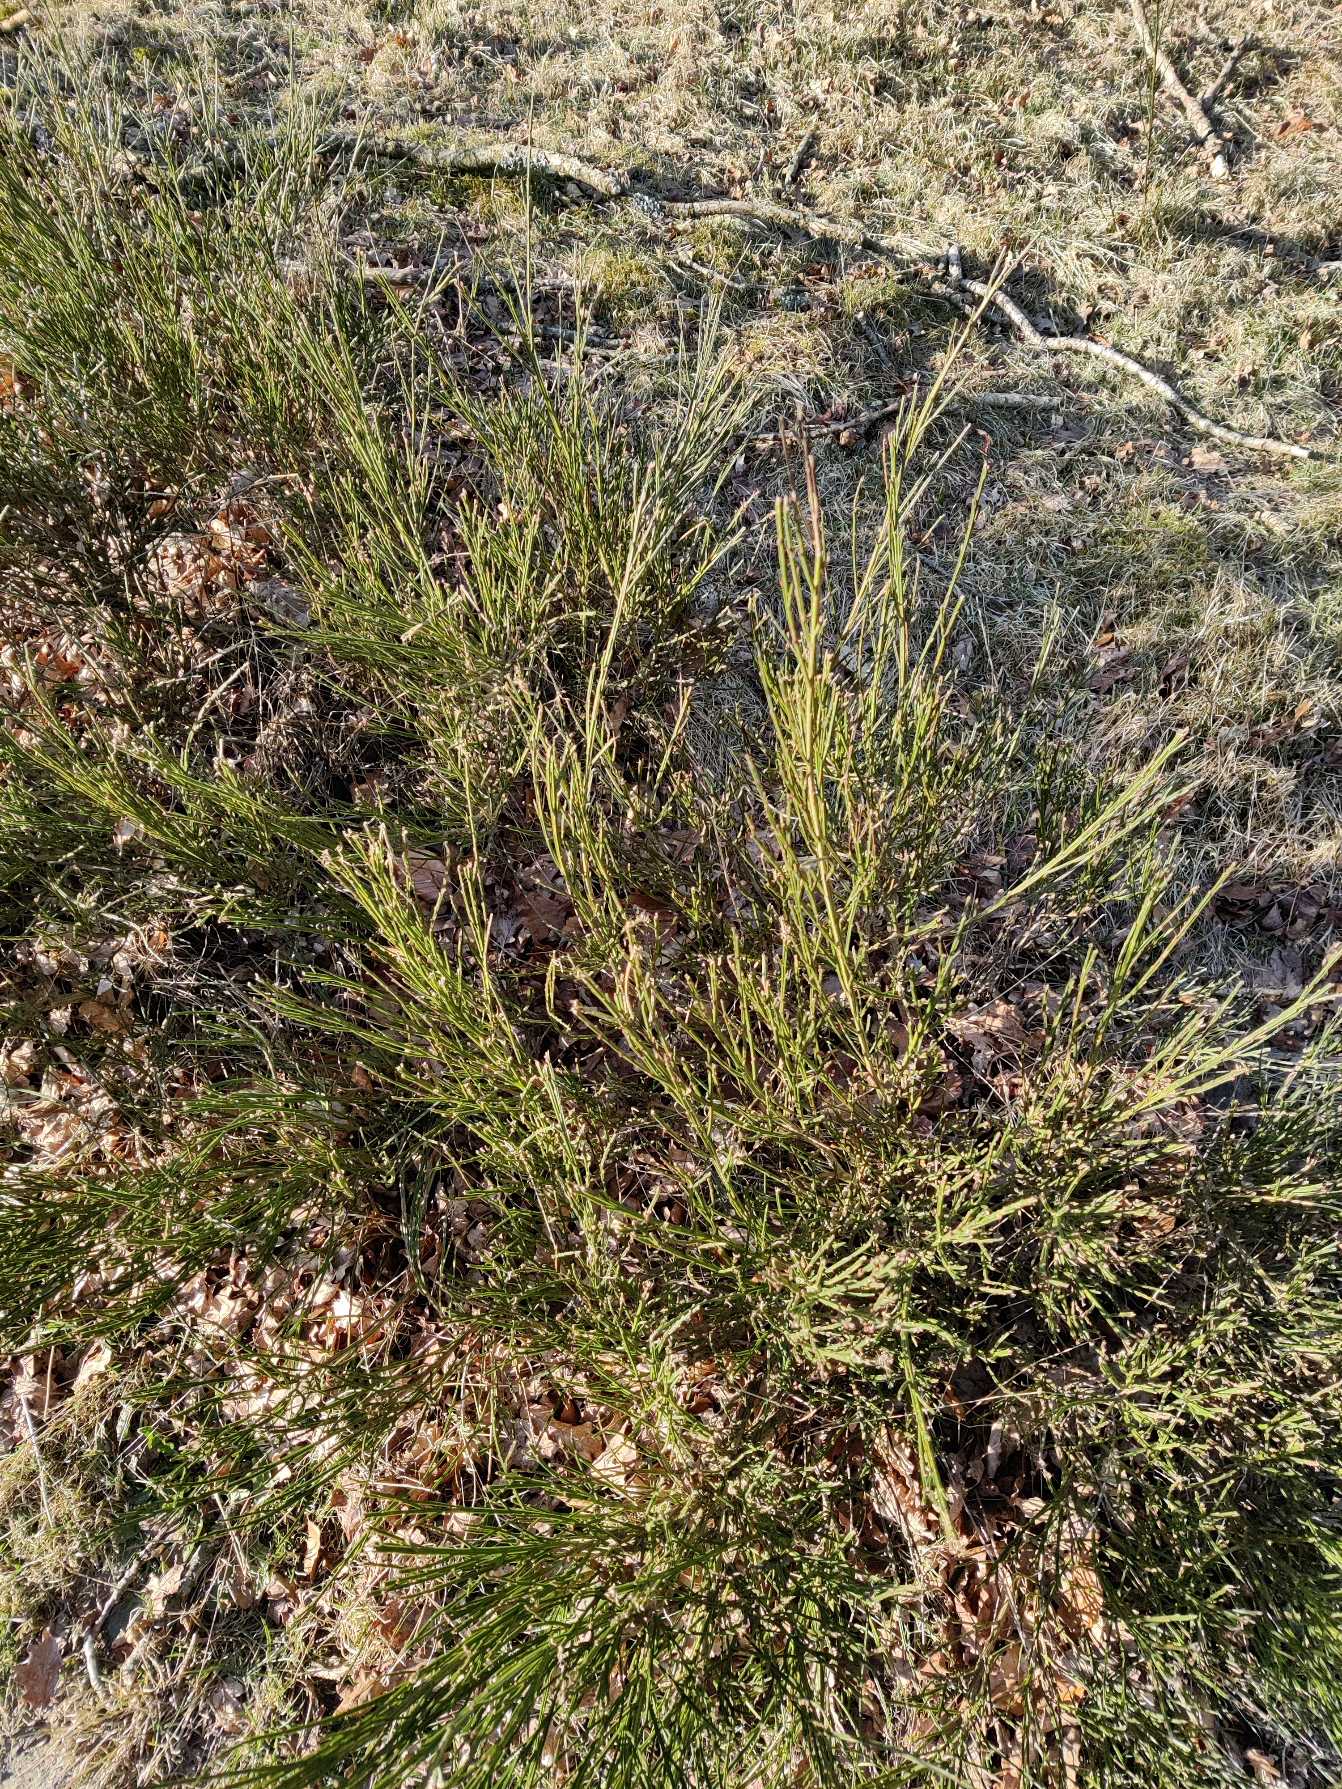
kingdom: Plantae
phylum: Tracheophyta
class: Magnoliopsida
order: Fabales
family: Fabaceae
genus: Cytisus
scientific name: Cytisus scoparius
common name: Almindelig gyvel
